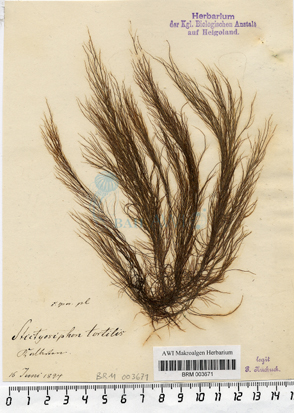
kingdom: Chromista
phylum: Ochrophyta
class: Phaeophyceae
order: Ectocarpales
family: Chordariaceae
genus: Stictyosiphon
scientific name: Stictyosiphon tortilis
